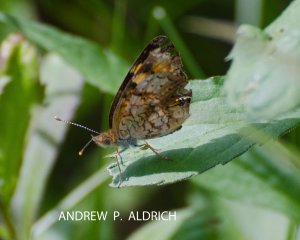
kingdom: Animalia
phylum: Arthropoda
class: Insecta
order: Lepidoptera
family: Nymphalidae
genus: Chlosyne
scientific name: Chlosyne nycteis
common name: Silvery Checkerspot
